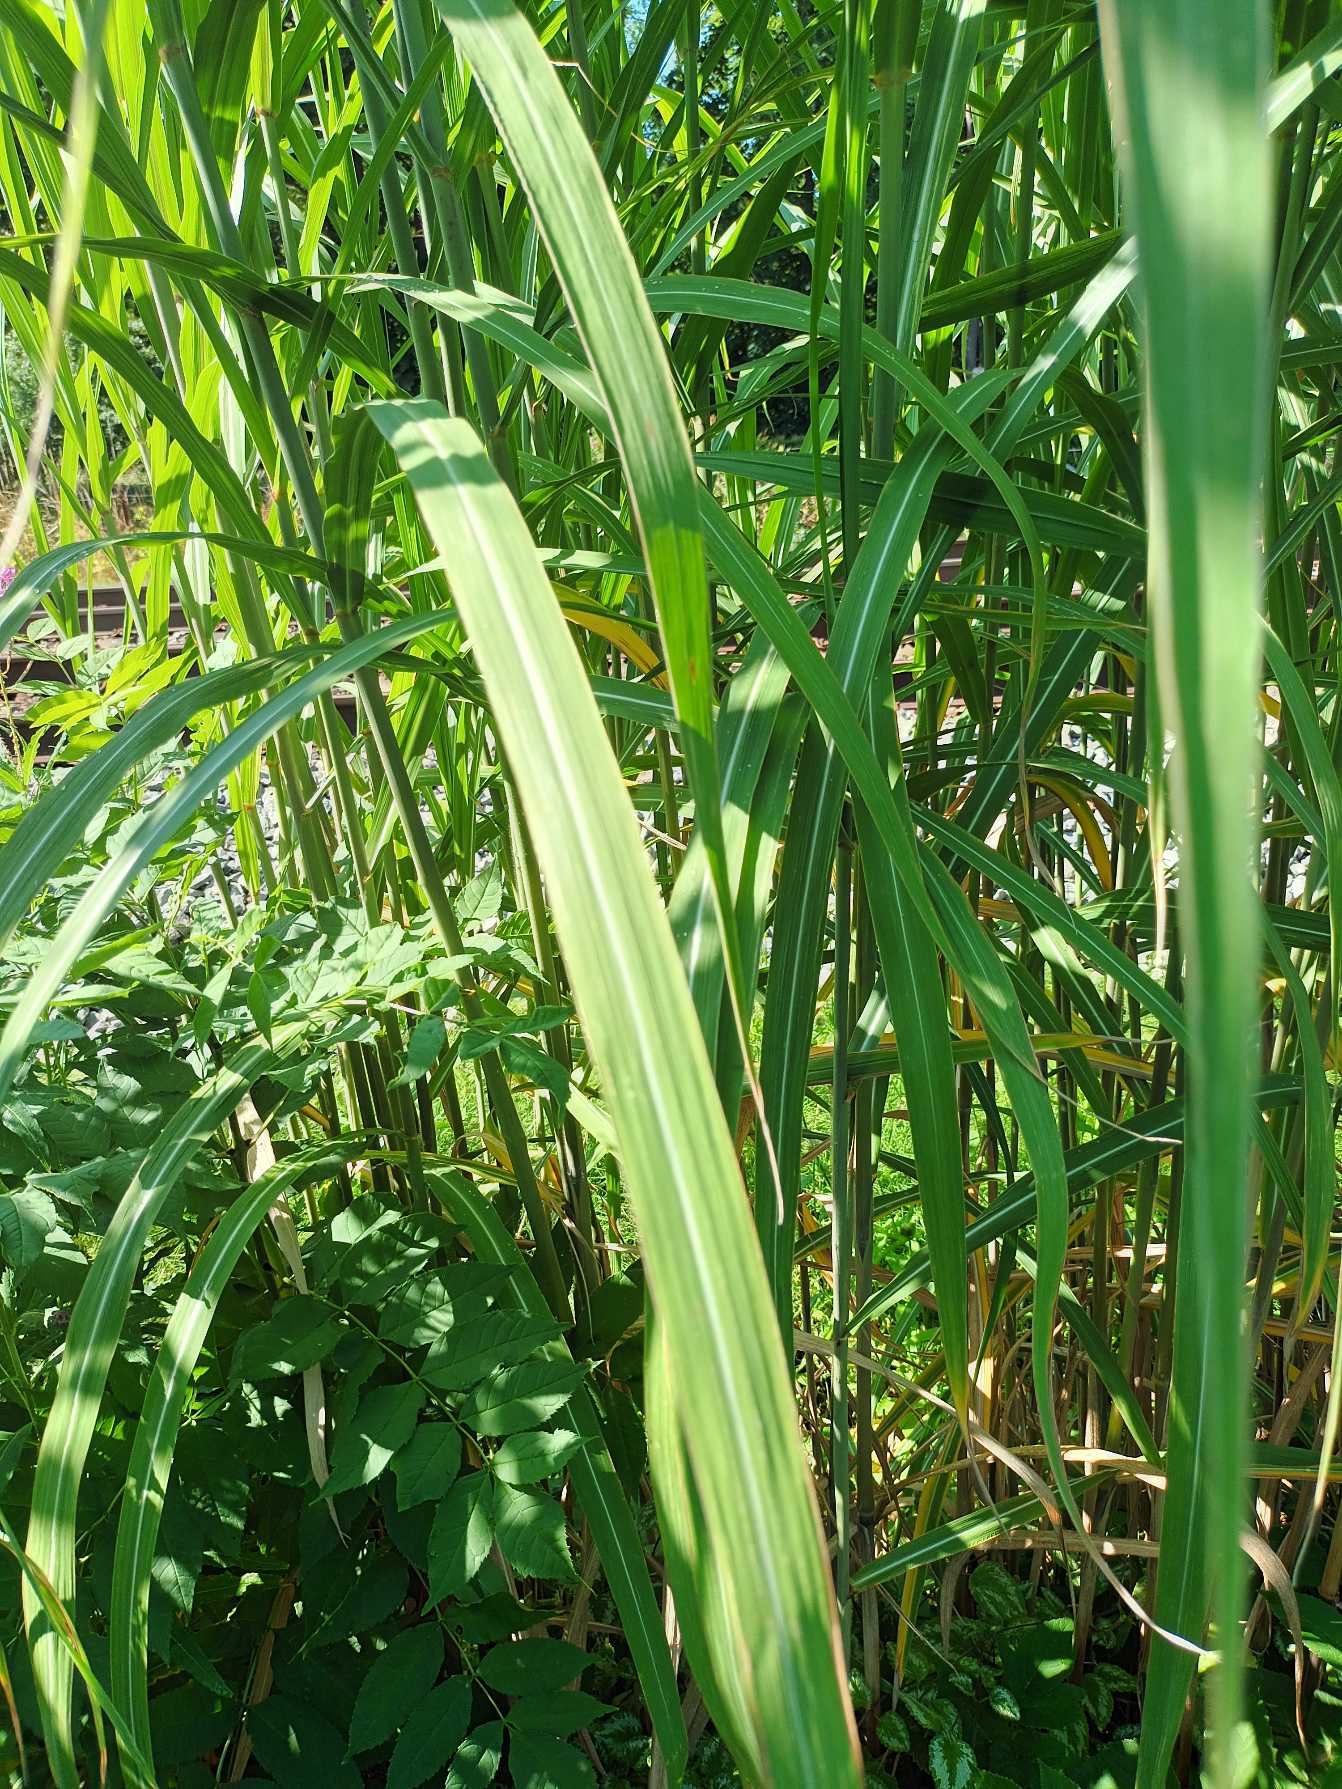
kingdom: Plantae
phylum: Tracheophyta
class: Liliopsida
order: Poales
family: Poaceae
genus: Miscanthus
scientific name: Miscanthus
